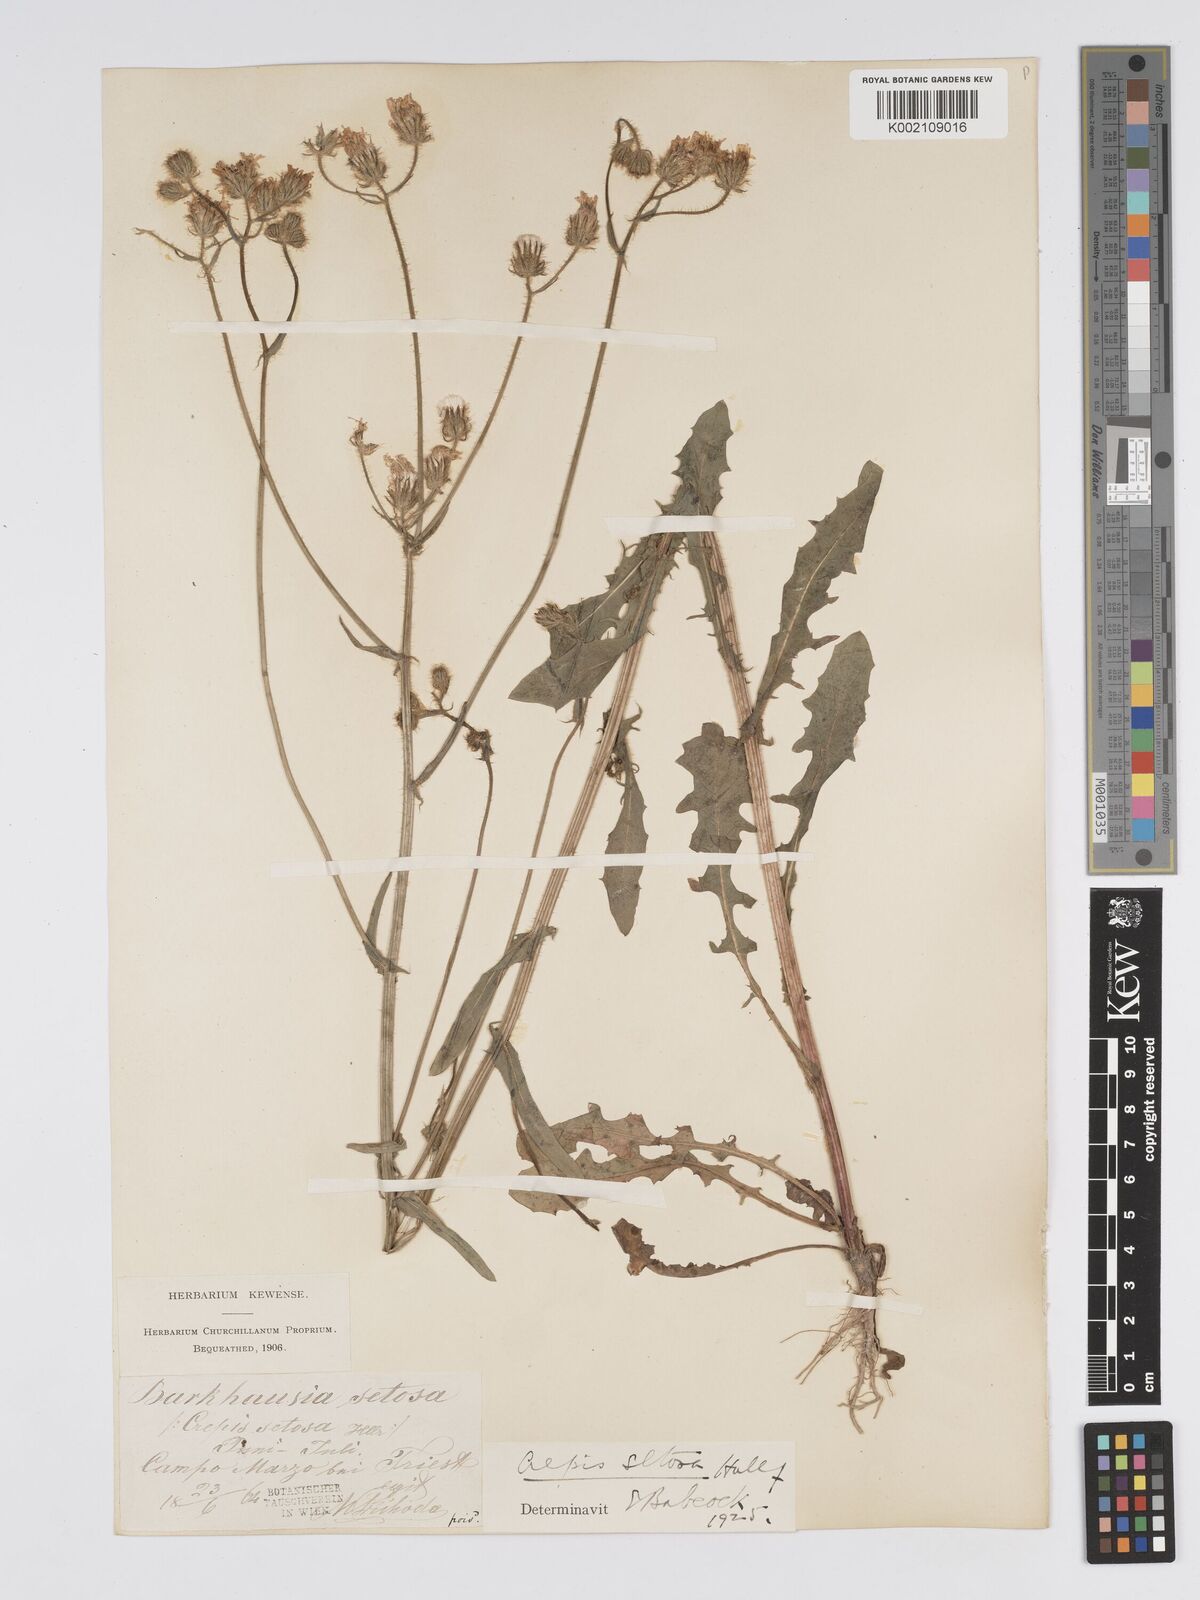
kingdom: Plantae
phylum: Tracheophyta
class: Magnoliopsida
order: Asterales
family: Asteraceae
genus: Crepis
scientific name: Crepis setosa
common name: Bristly hawk's-beard
